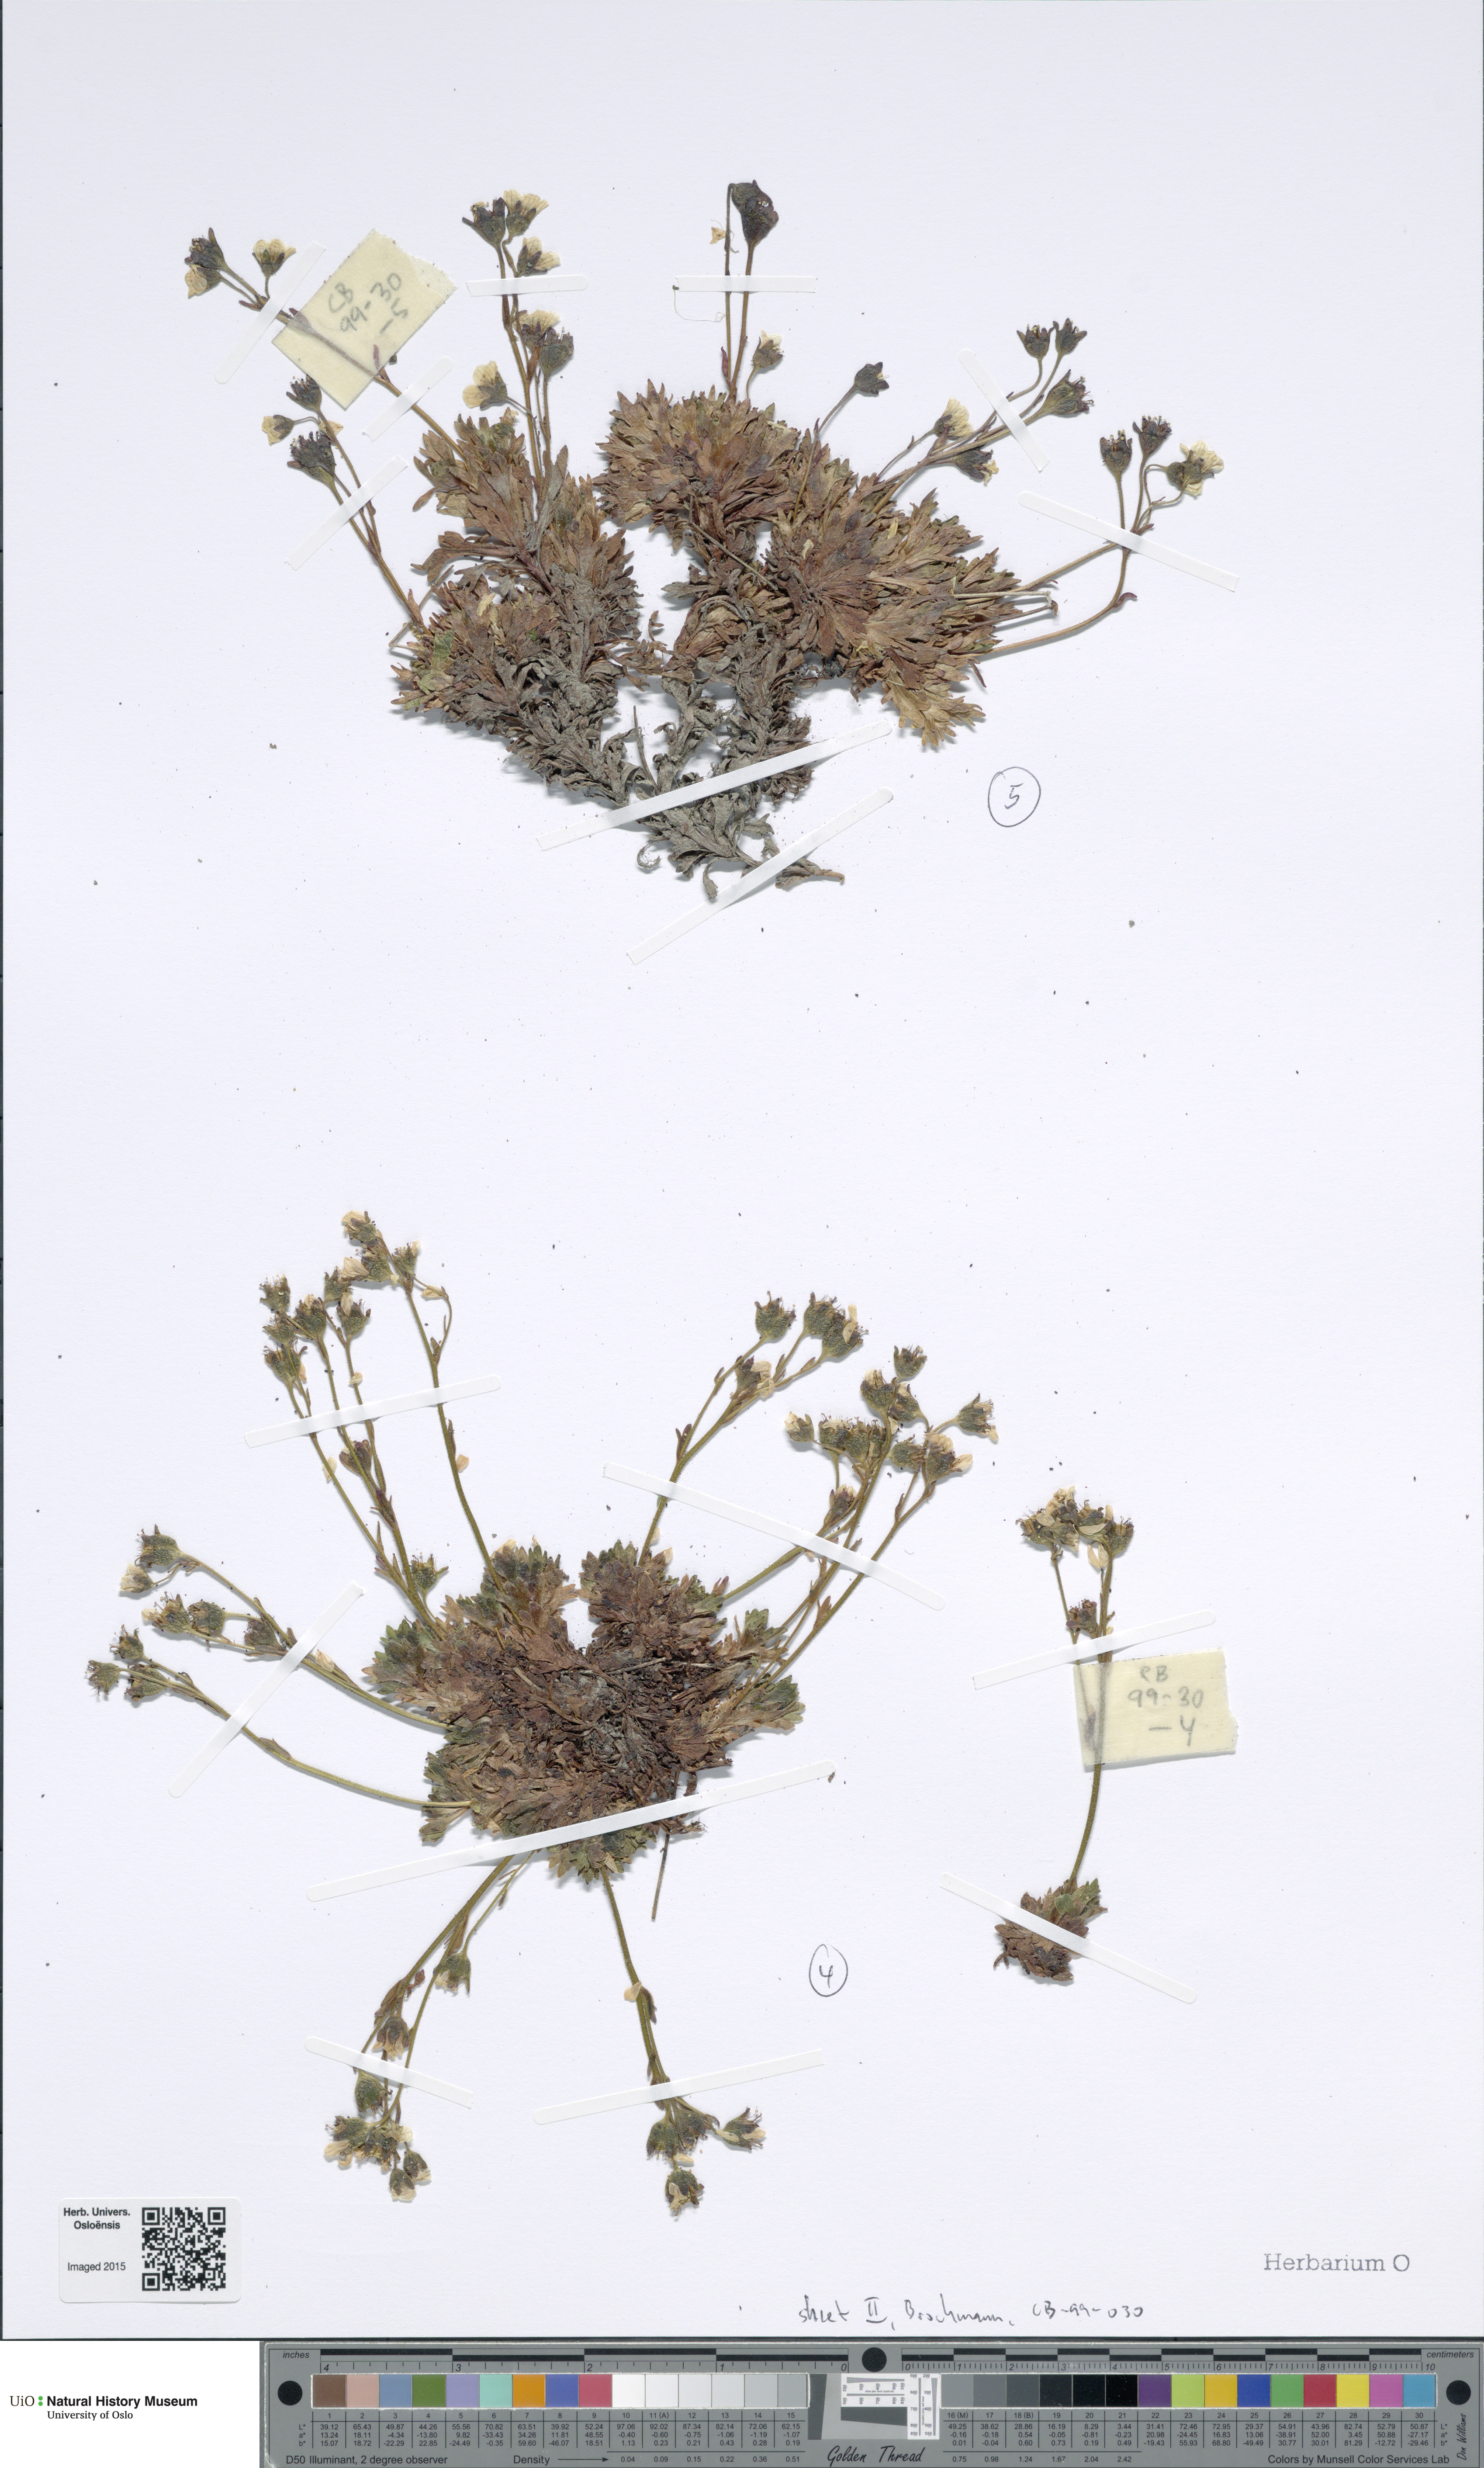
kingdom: Plantae
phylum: Tracheophyta
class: Magnoliopsida
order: Saxifragales
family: Saxifragaceae
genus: Saxifraga
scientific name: Saxifraga cespitosa
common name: Tufted saxifrage
